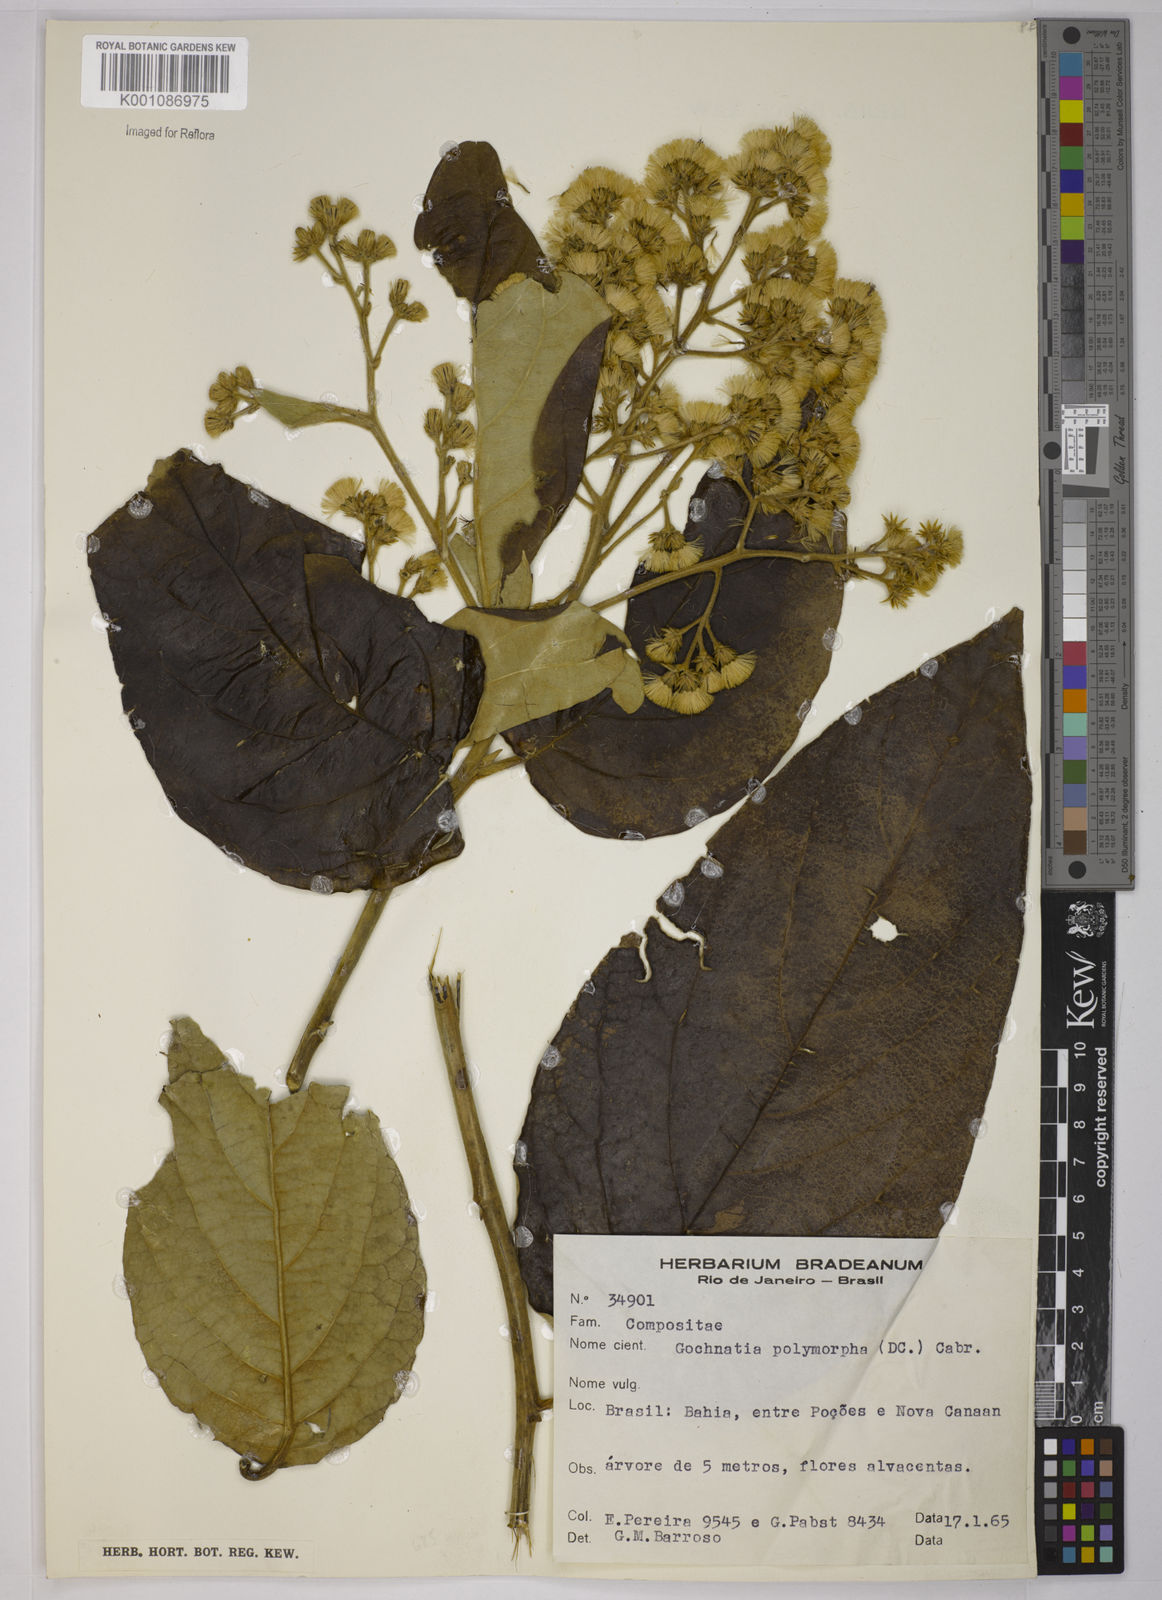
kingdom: Plantae
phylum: Tracheophyta
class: Magnoliopsida
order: Asterales
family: Asteraceae
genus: Moquiniastrum
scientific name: Moquiniastrum polymorphum
